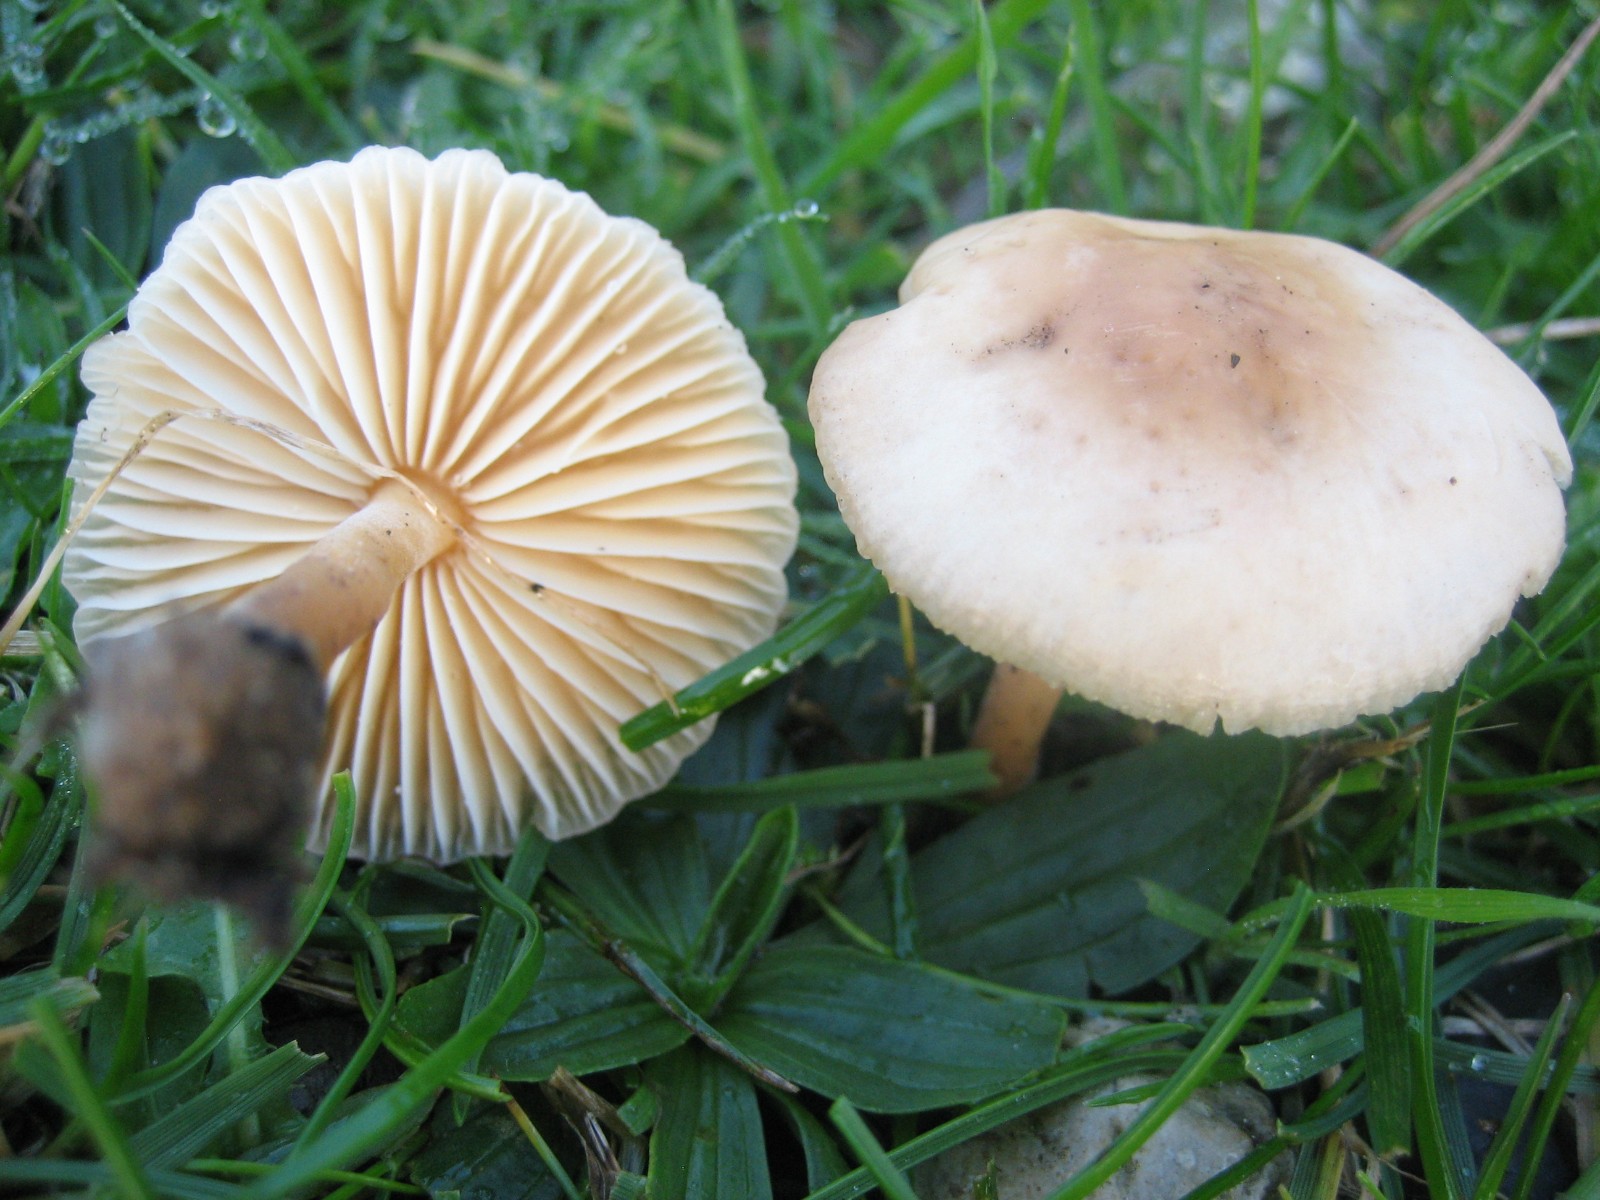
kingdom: Fungi
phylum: Basidiomycota
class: Agaricomycetes
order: Agaricales
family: Marasmiaceae
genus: Marasmius
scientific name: Marasmius oreades
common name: elledans-bruskhat
